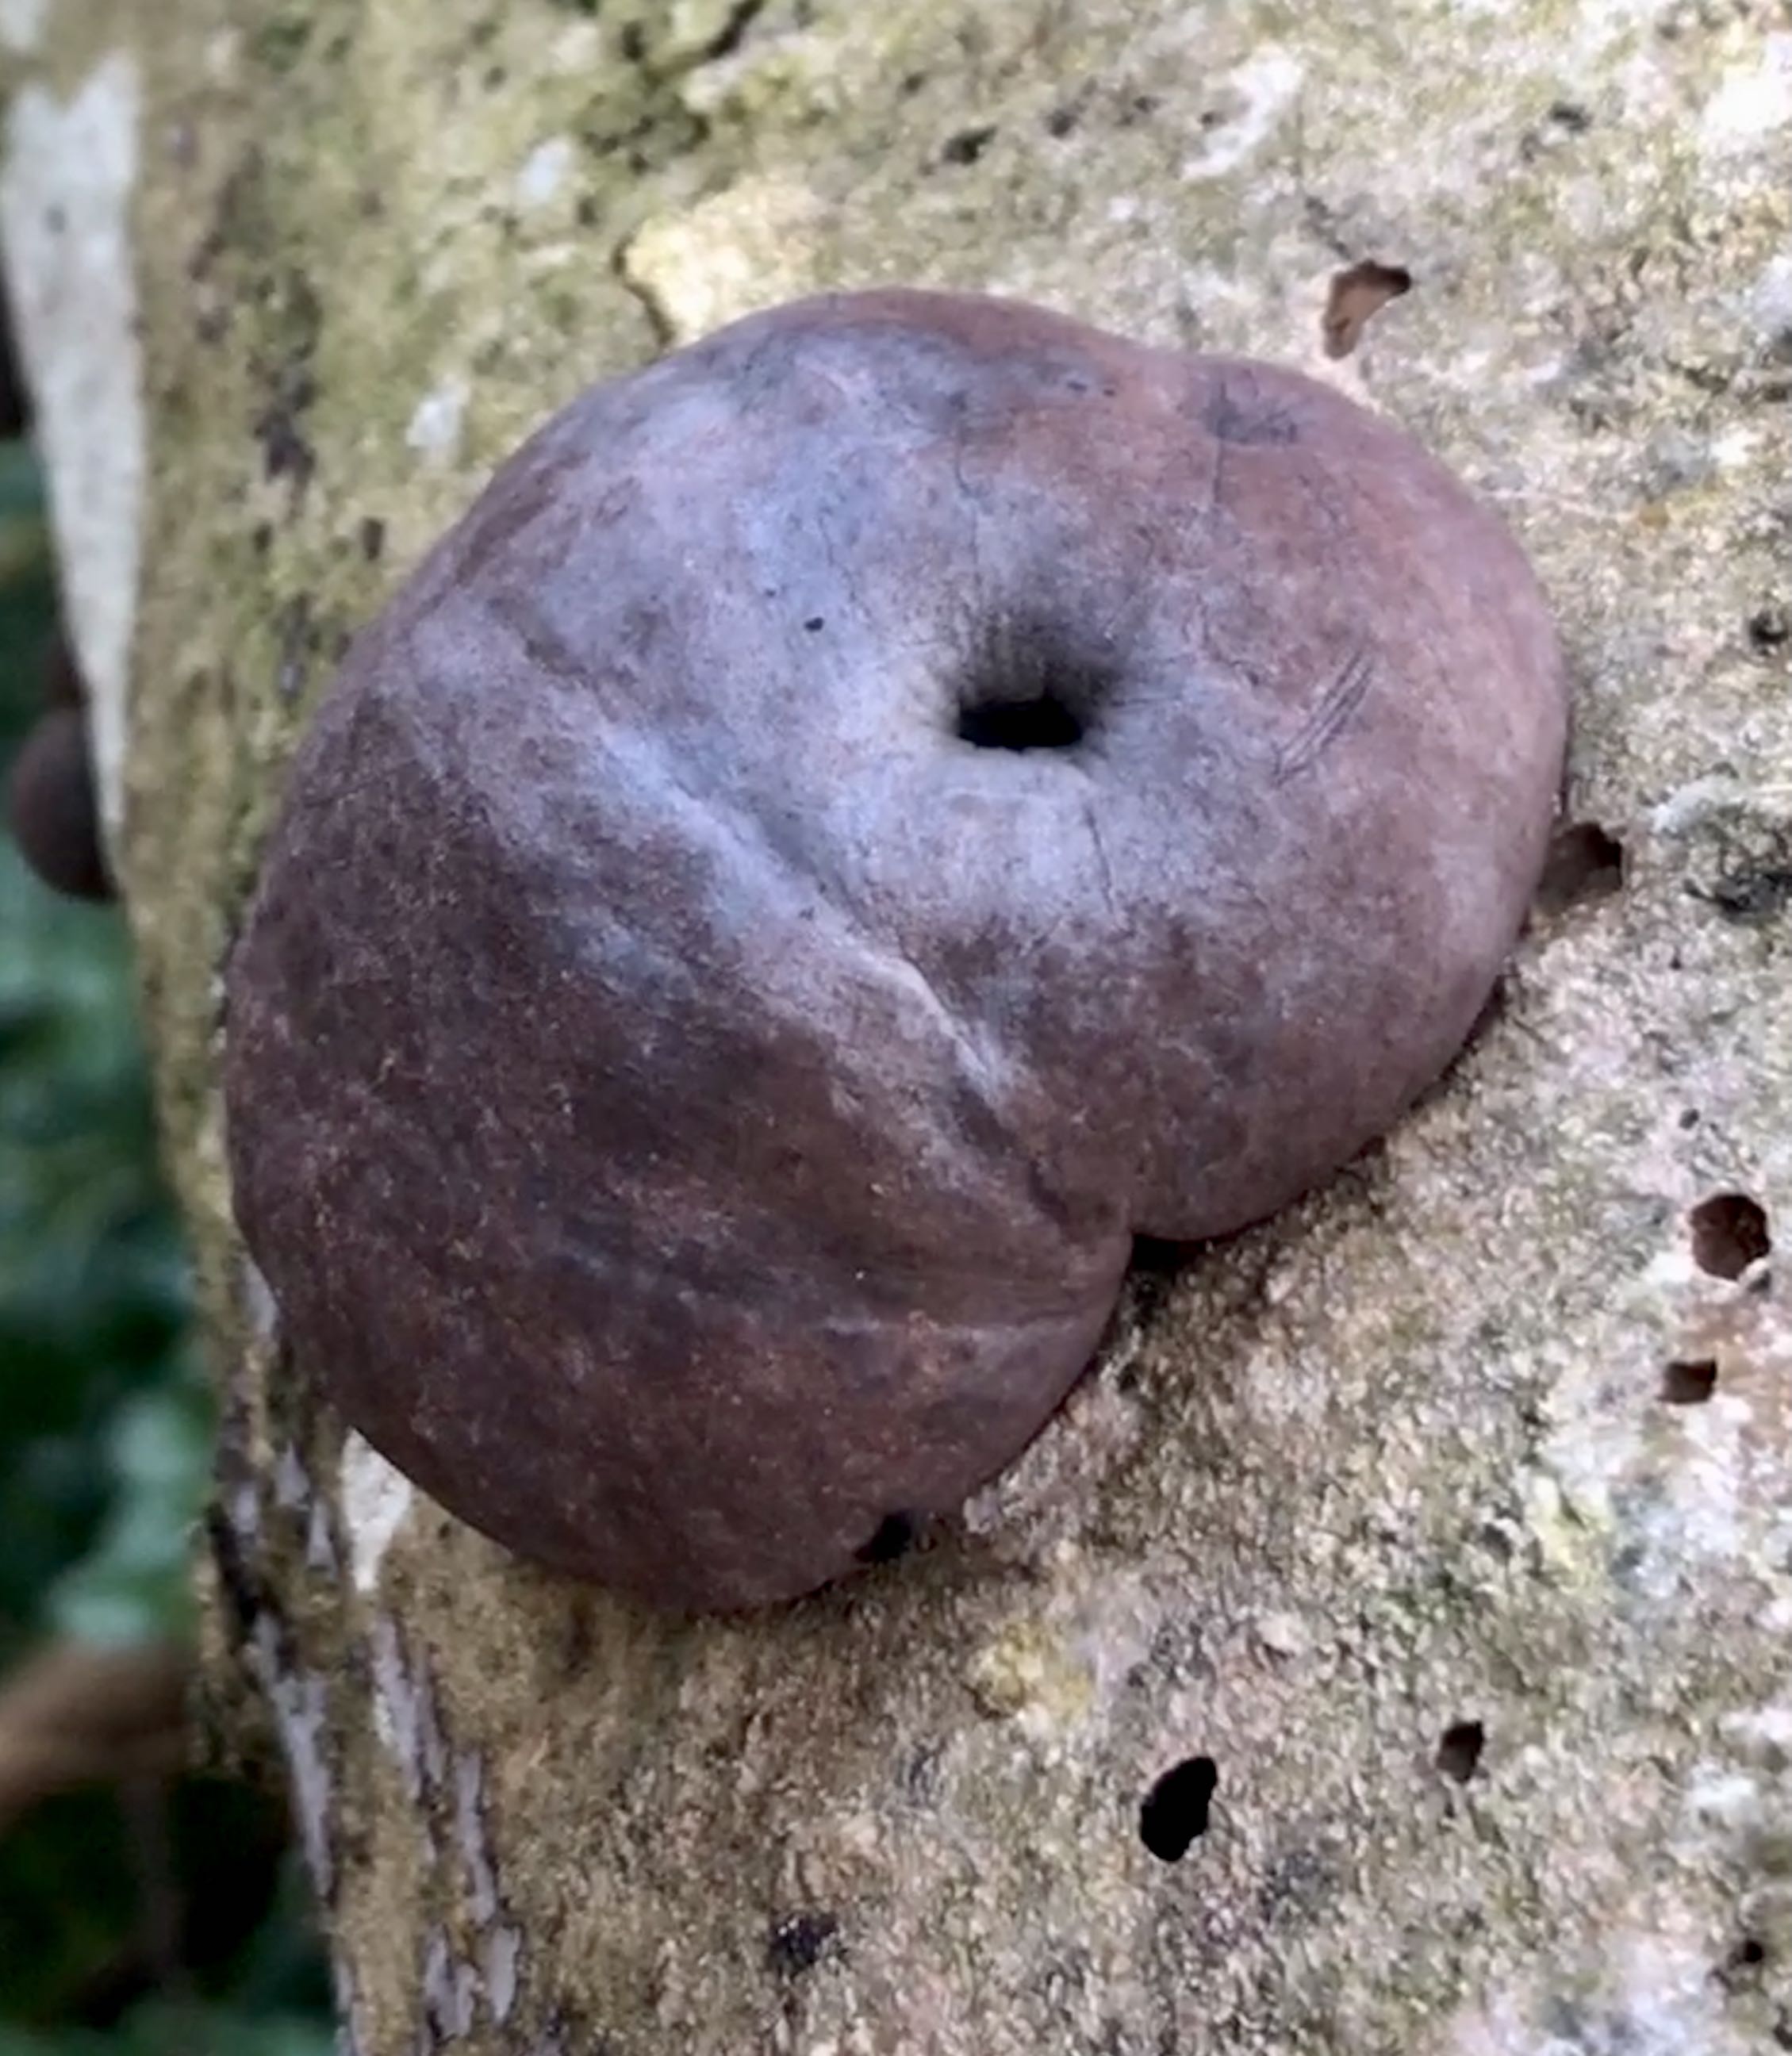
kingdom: Fungi
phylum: Ascomycota
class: Sordariomycetes
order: Xylariales
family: Hypoxylaceae
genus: Daldinia
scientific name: Daldinia concentrica
